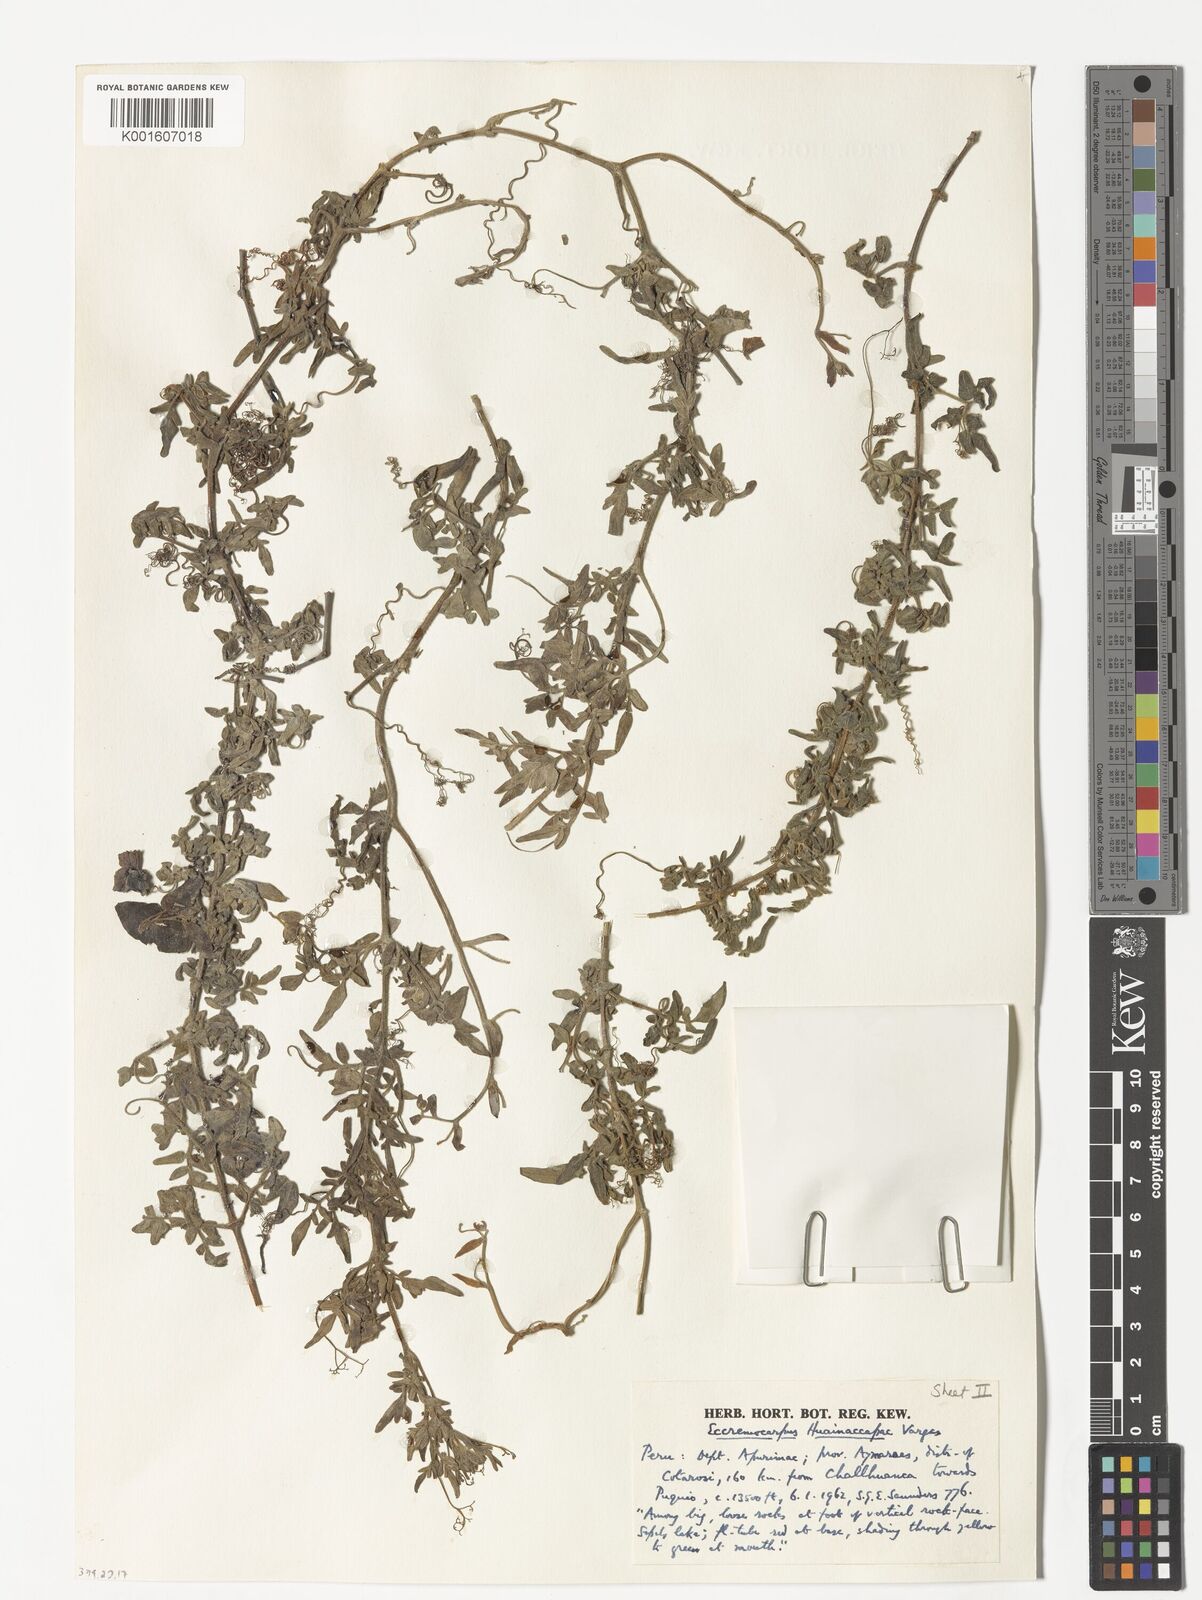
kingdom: Plantae
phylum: Tracheophyta
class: Magnoliopsida
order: Lamiales
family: Bignoniaceae
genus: Eccremocarpus
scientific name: Eccremocarpus huianaccapac
